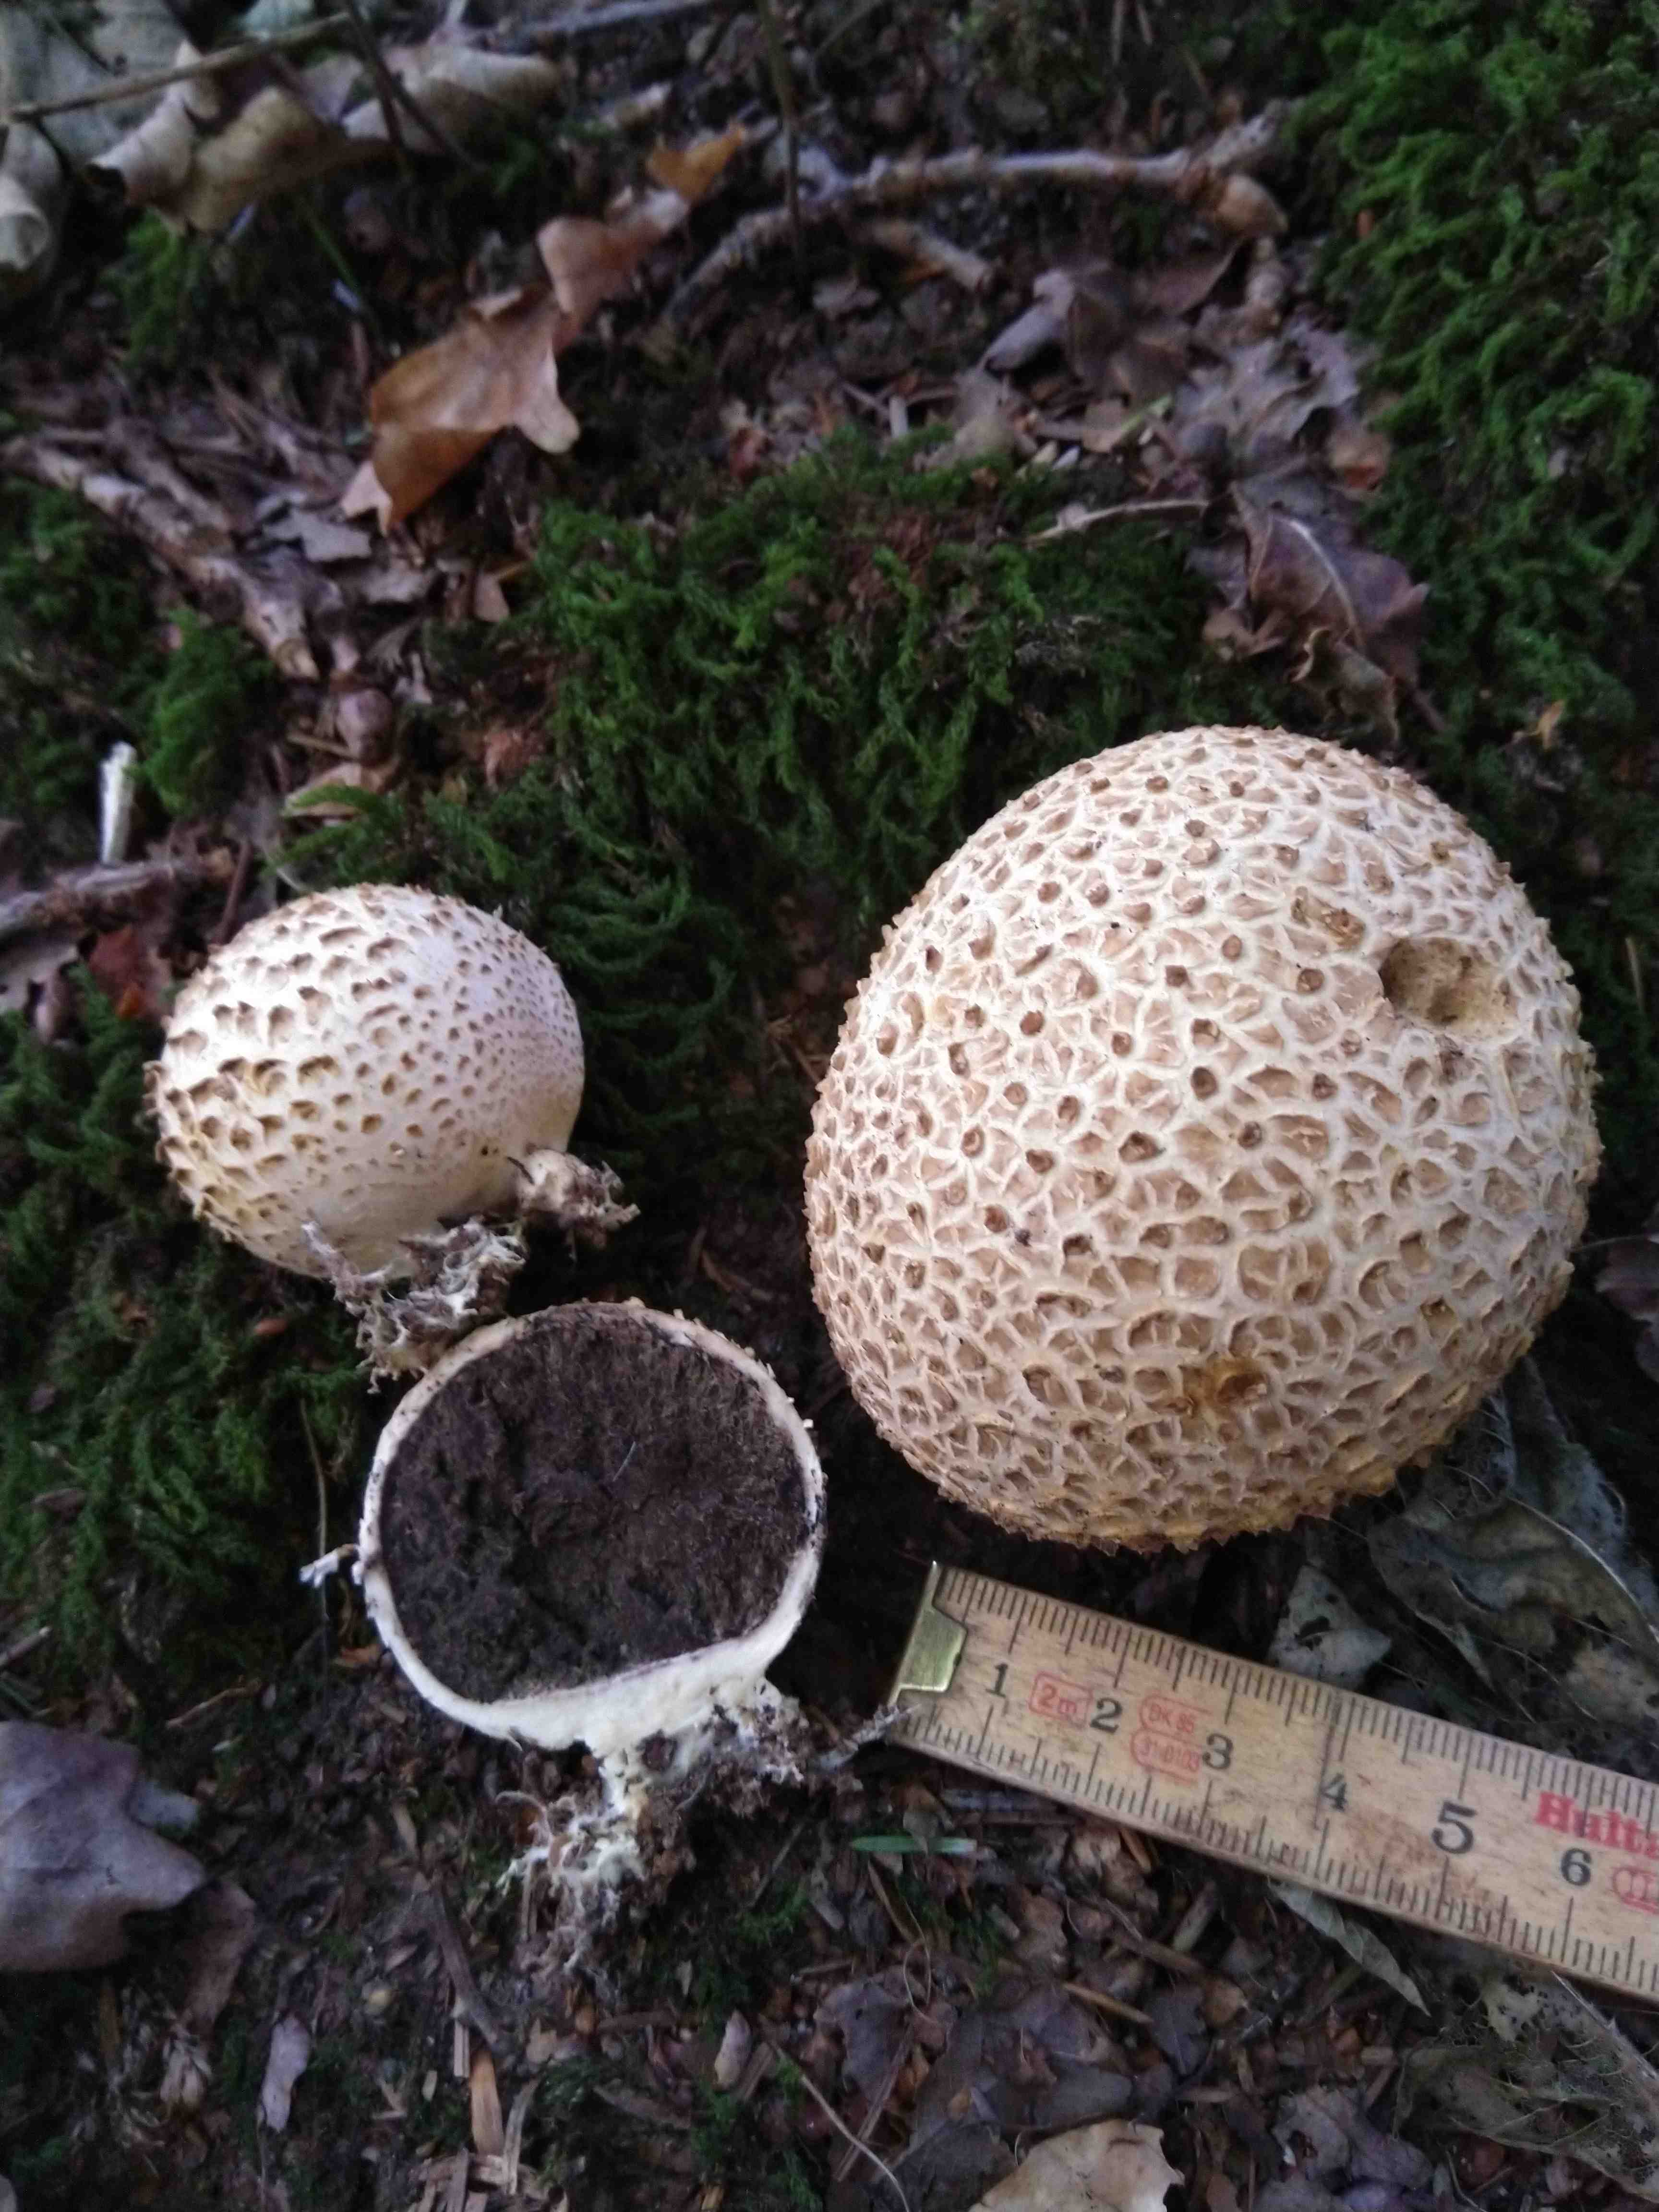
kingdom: Fungi
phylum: Basidiomycota
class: Agaricomycetes
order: Boletales
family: Sclerodermataceae
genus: Scleroderma
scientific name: Scleroderma citrinum
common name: almindelig bruskbold
